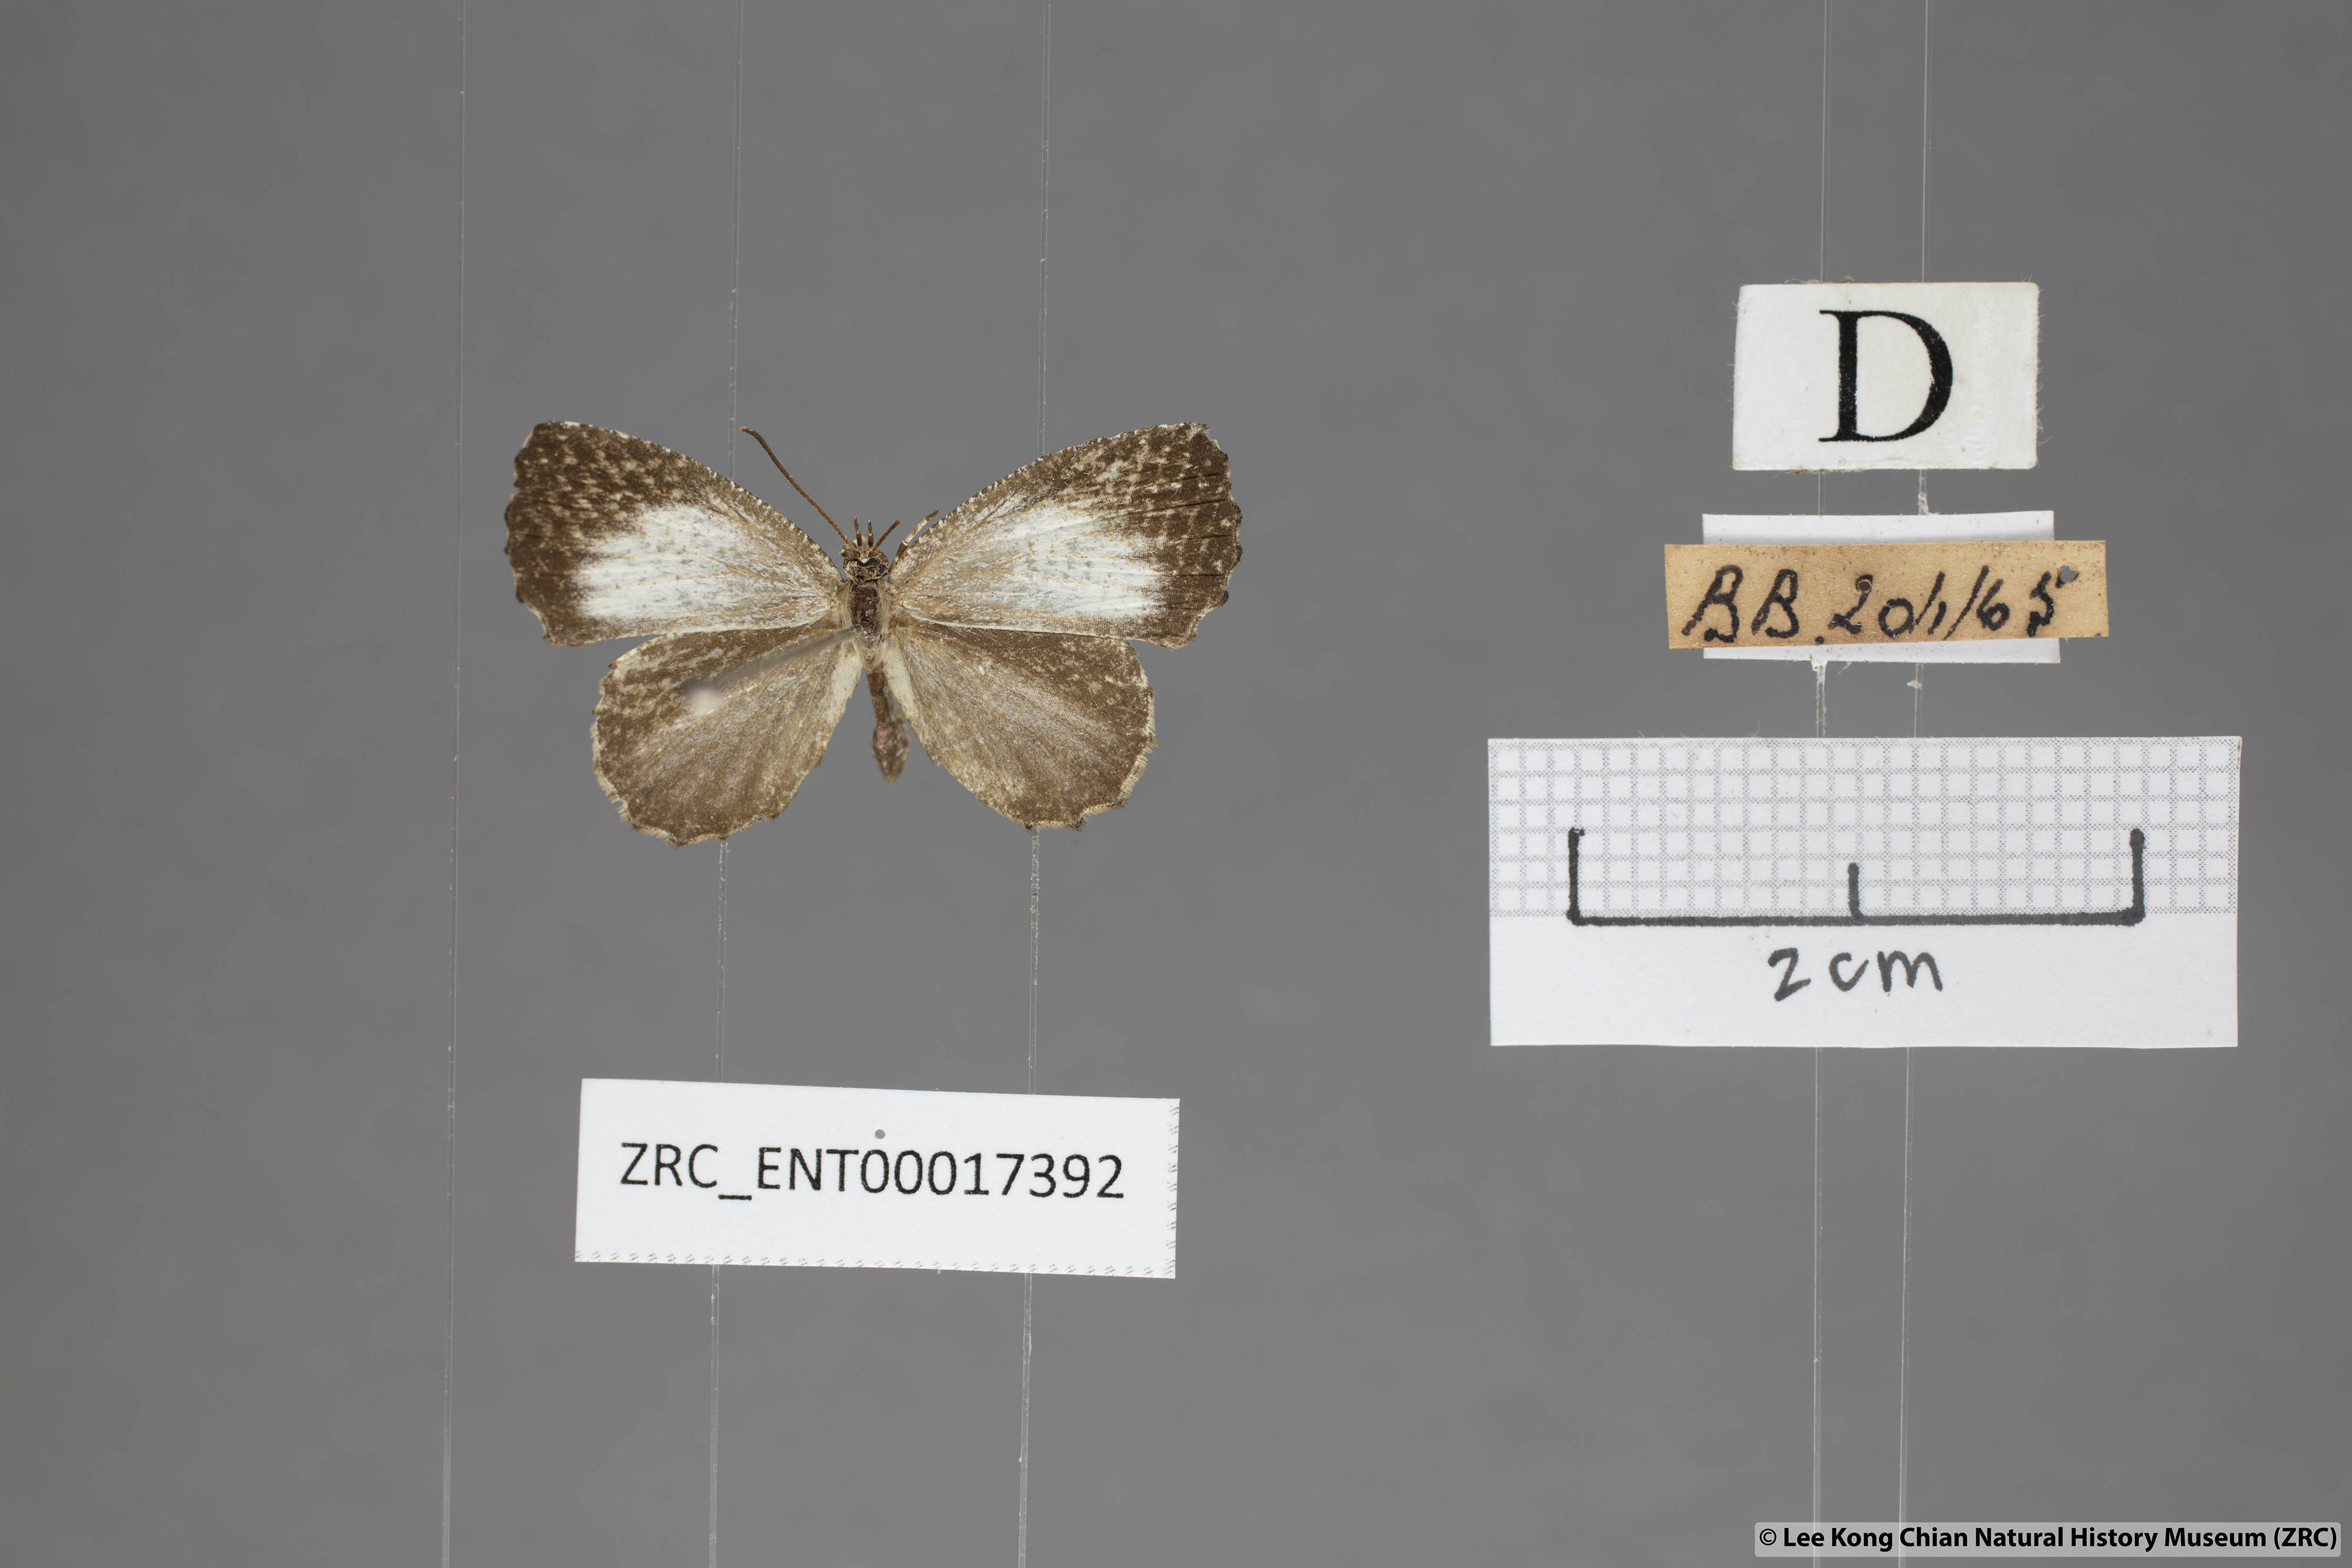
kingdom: Animalia
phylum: Arthropoda
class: Insecta
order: Lepidoptera
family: Lycaenidae
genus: Logania
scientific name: Logania marmorata
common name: Pale mottle
